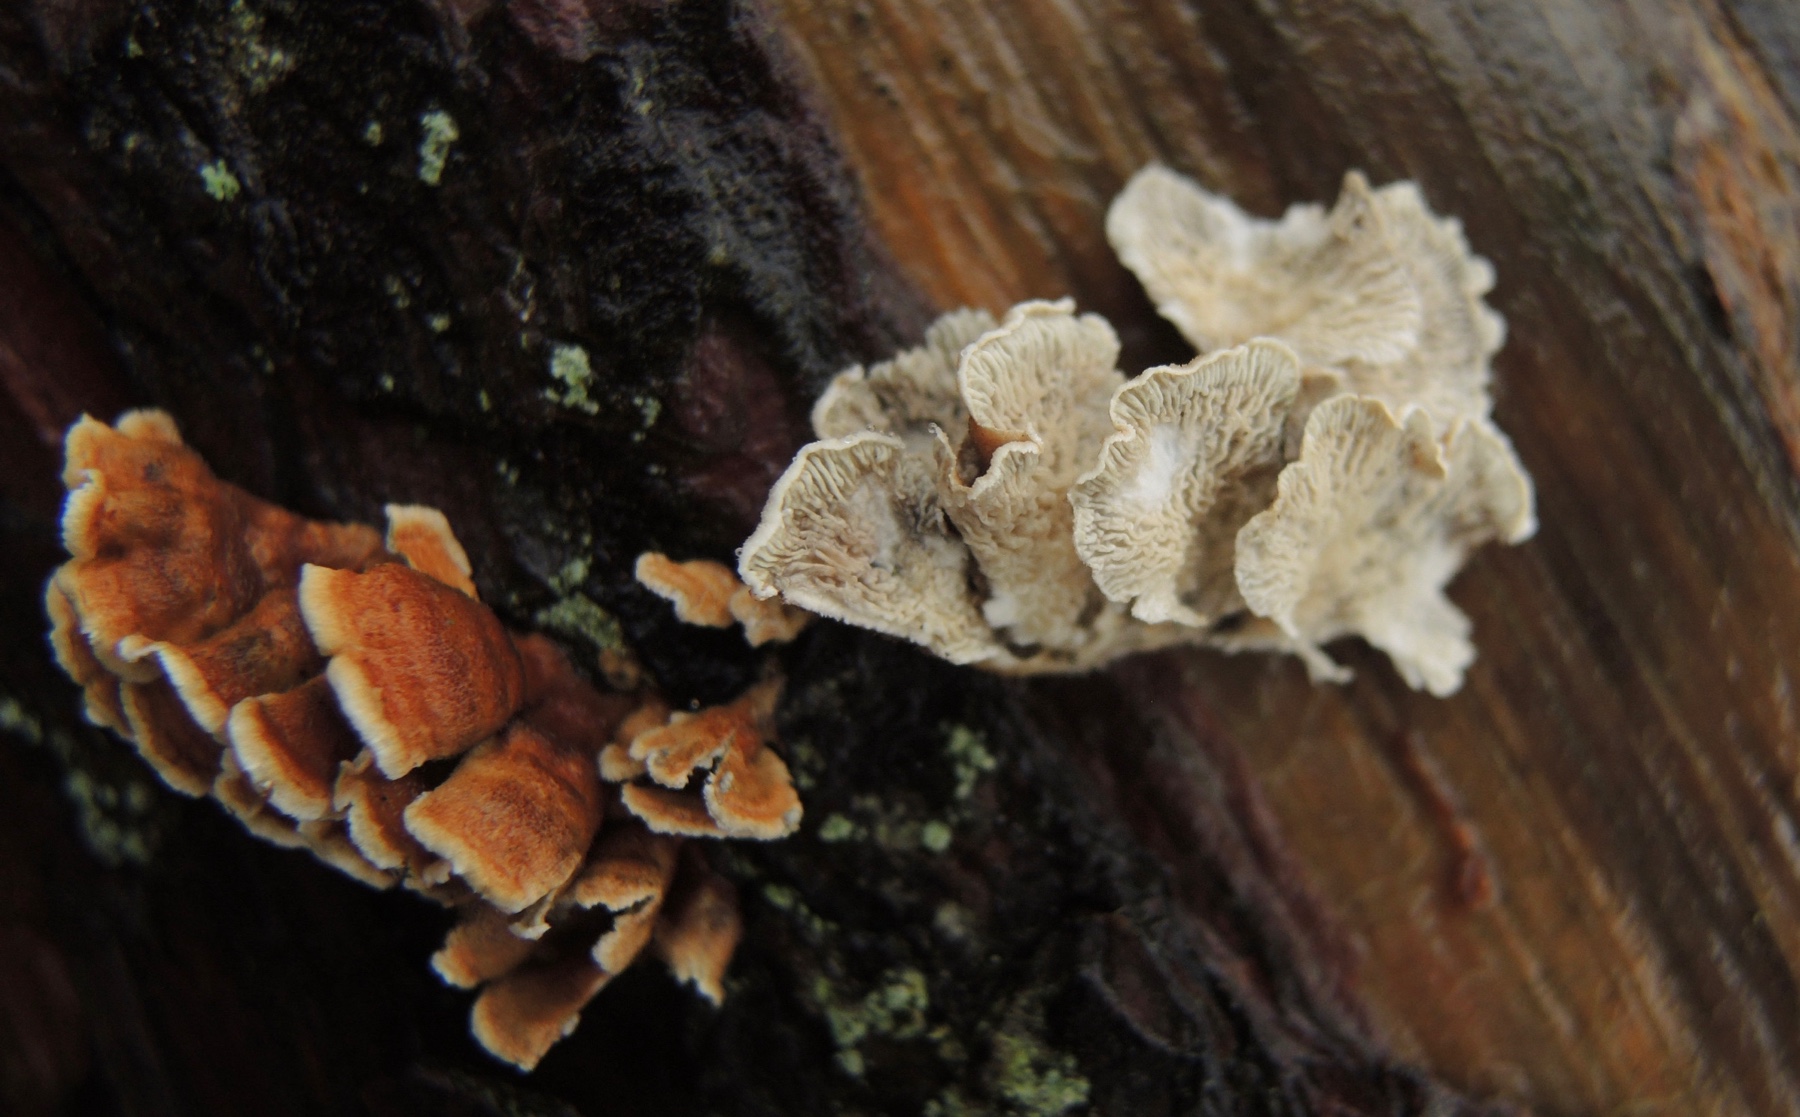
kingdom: Fungi
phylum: Basidiomycota
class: Agaricomycetes
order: Amylocorticiales
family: Amylocorticiaceae
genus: Plicaturopsis
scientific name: Plicaturopsis crispa
